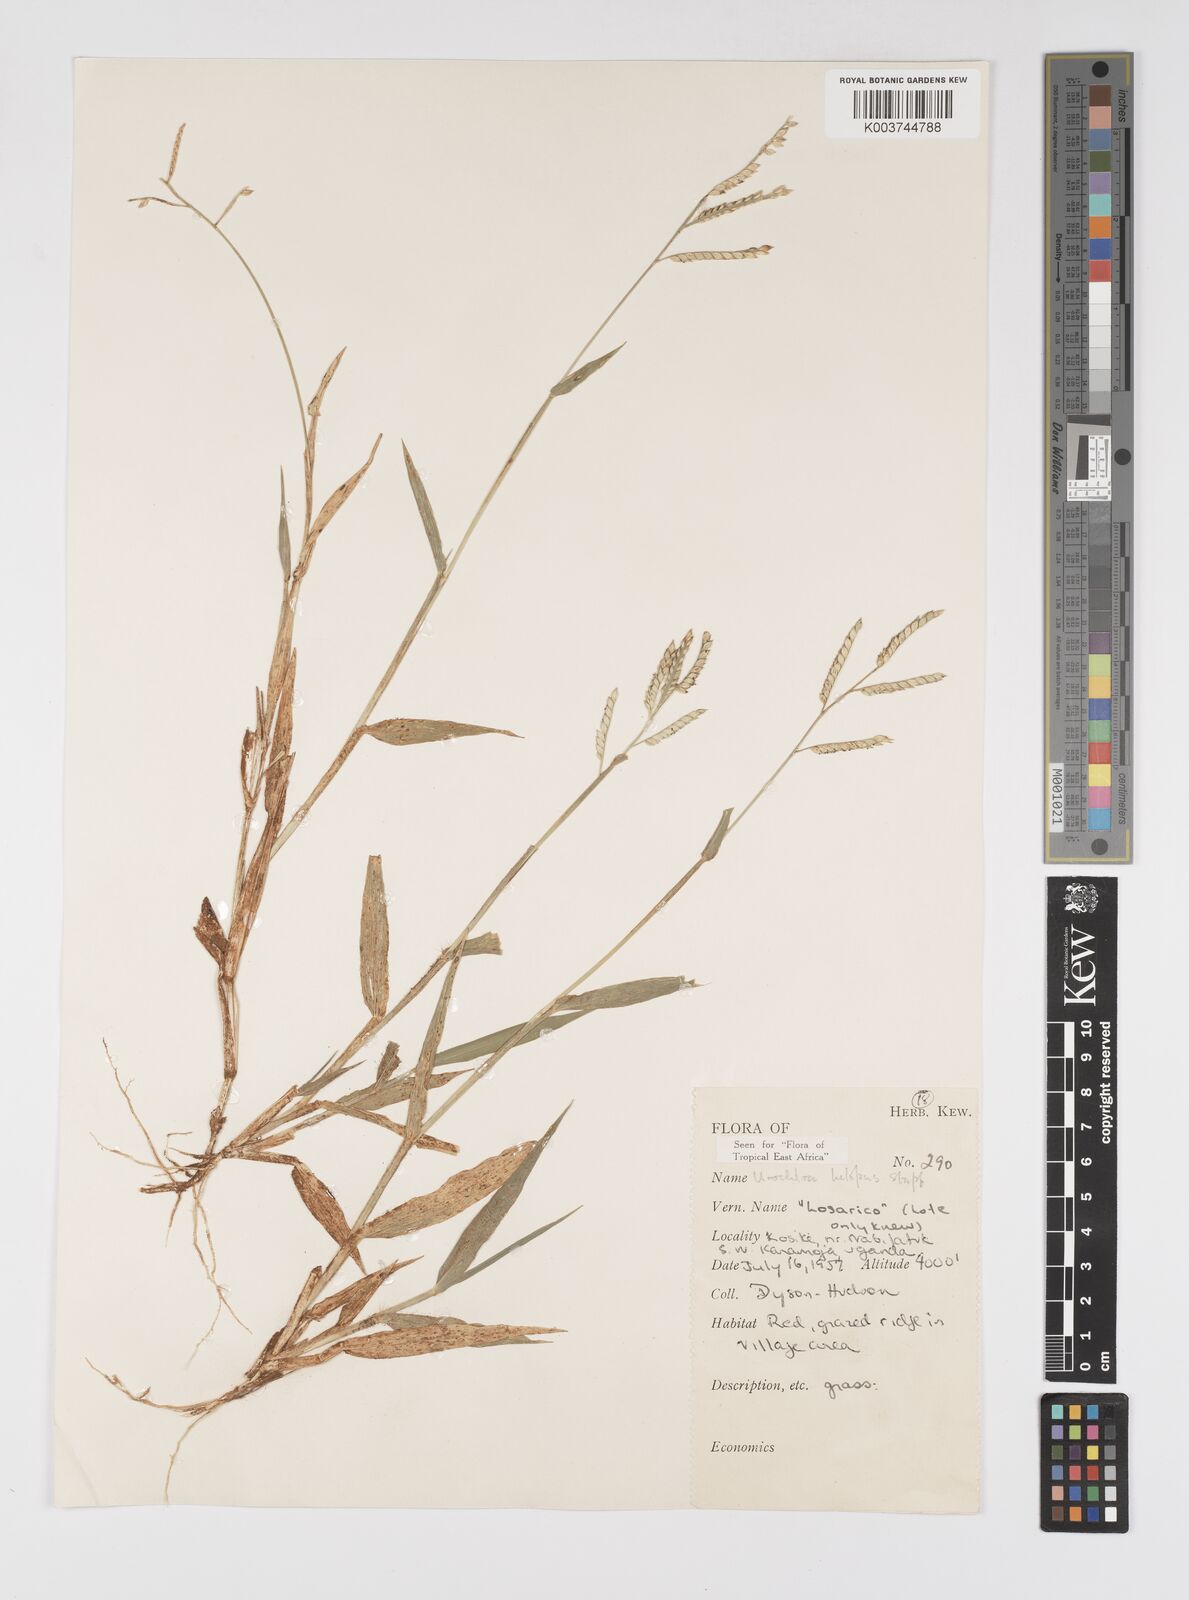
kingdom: Plantae
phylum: Tracheophyta
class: Liliopsida
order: Poales
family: Poaceae
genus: Urochloa
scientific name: Urochloa panicoides
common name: Sharp-flowered signal-grass
